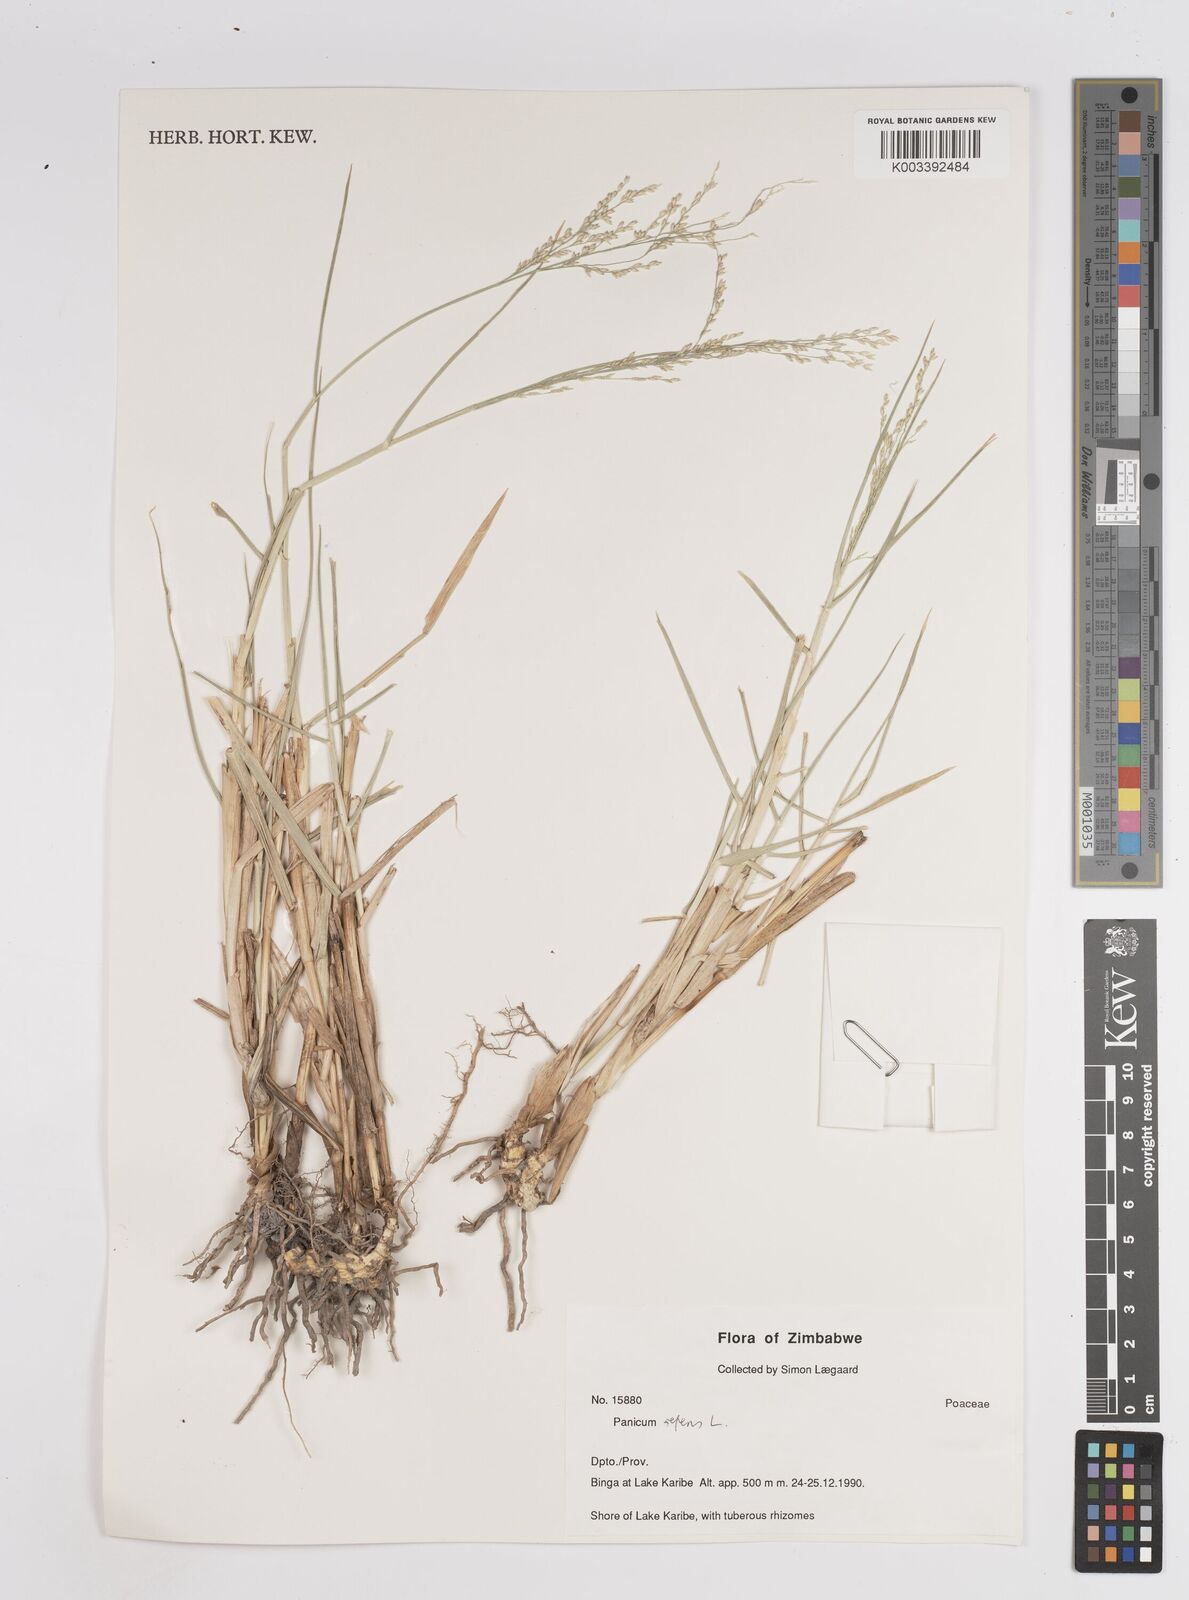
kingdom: Plantae
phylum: Tracheophyta
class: Liliopsida
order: Poales
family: Poaceae
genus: Panicum
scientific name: Panicum repens
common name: Torpedo grass
